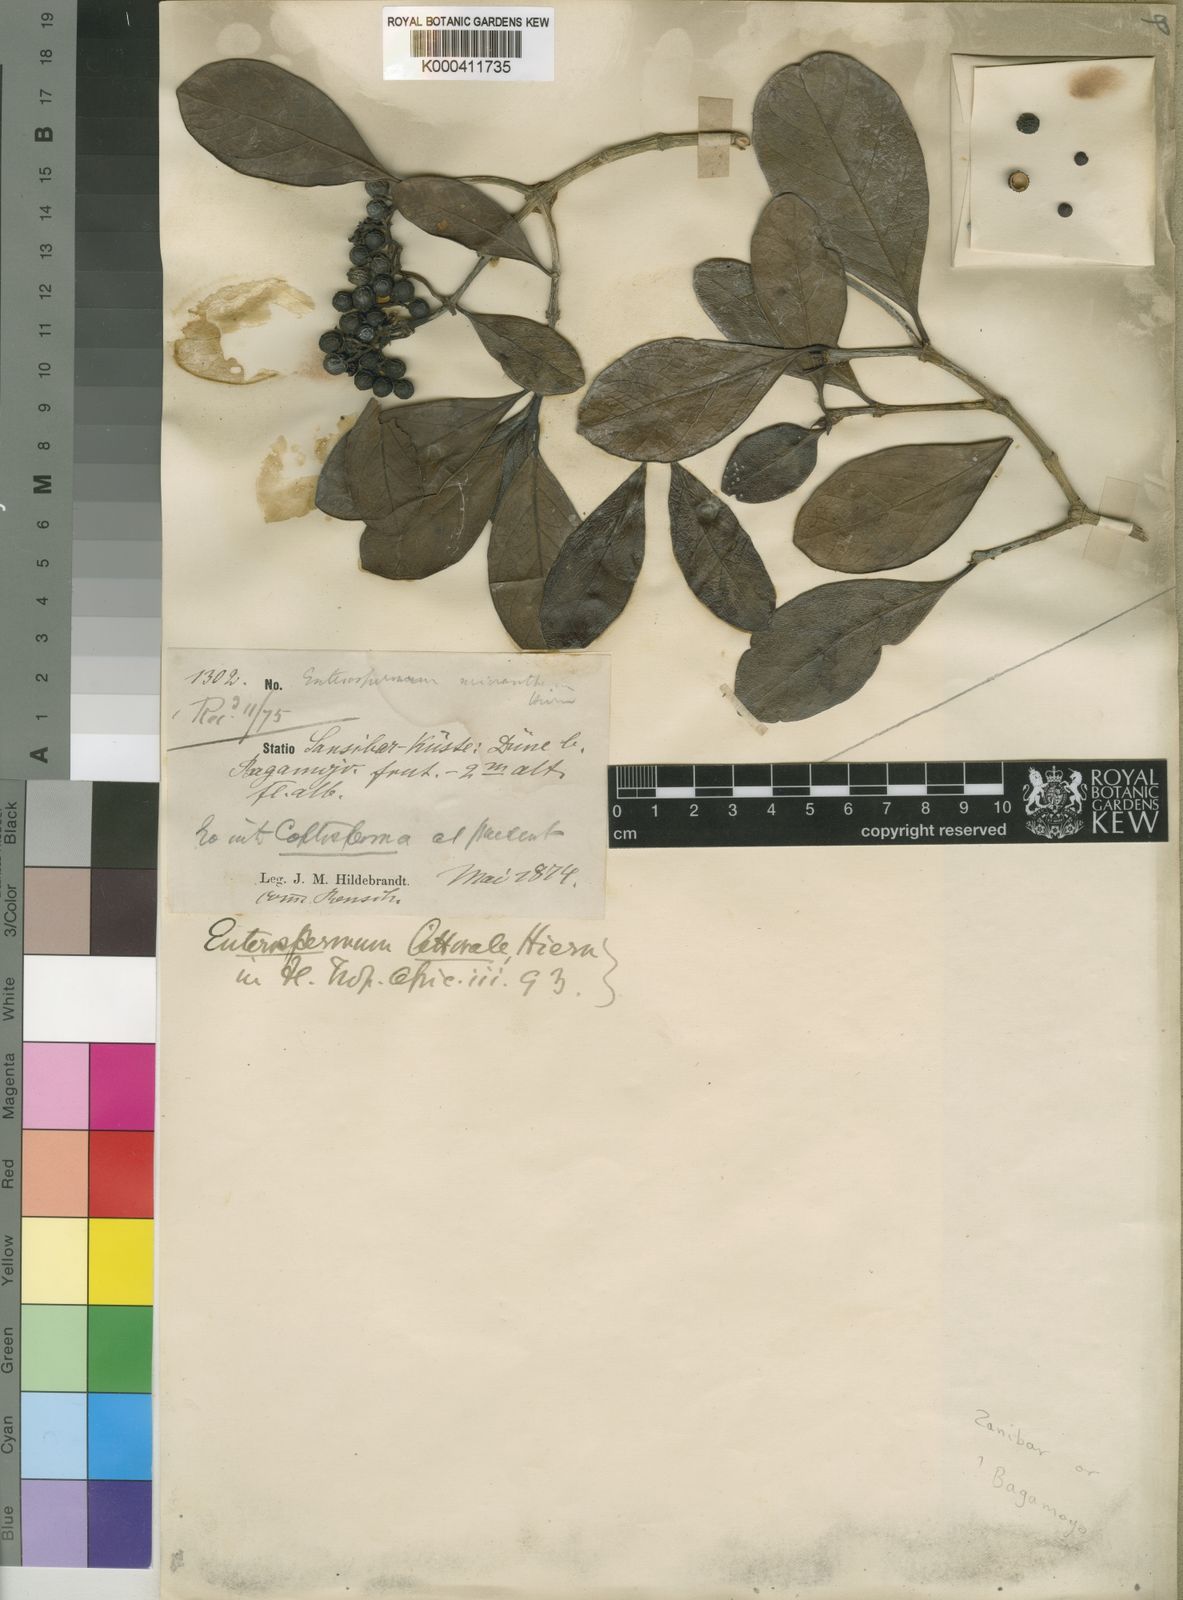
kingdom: Plantae
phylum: Tracheophyta
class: Magnoliopsida
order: Gentianales
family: Rubiaceae
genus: Coptosperma
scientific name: Coptosperma littorale
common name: Dune butterspoon
